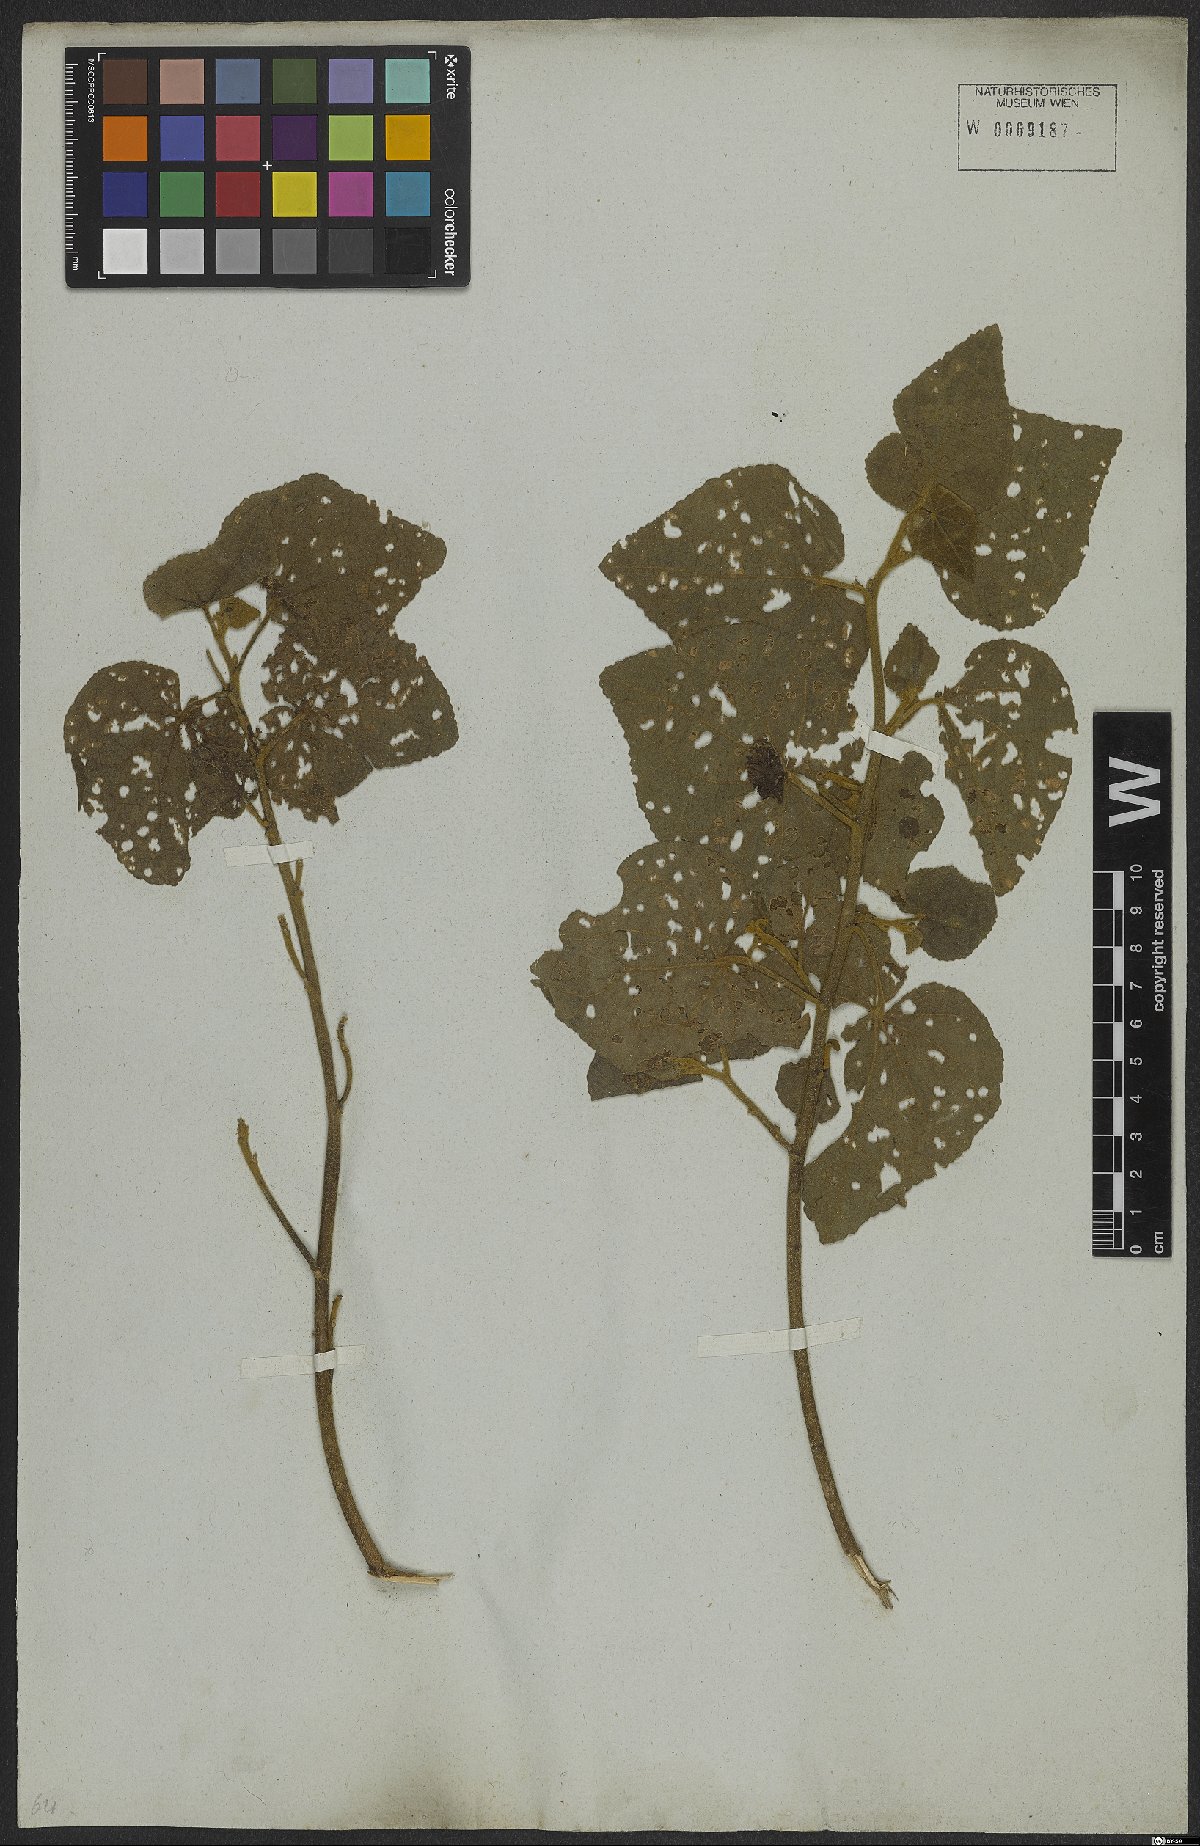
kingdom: Plantae
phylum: Tracheophyta
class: Magnoliopsida
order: Malvales
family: Malvaceae
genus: Hibiscus
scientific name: Hibiscus sororius
